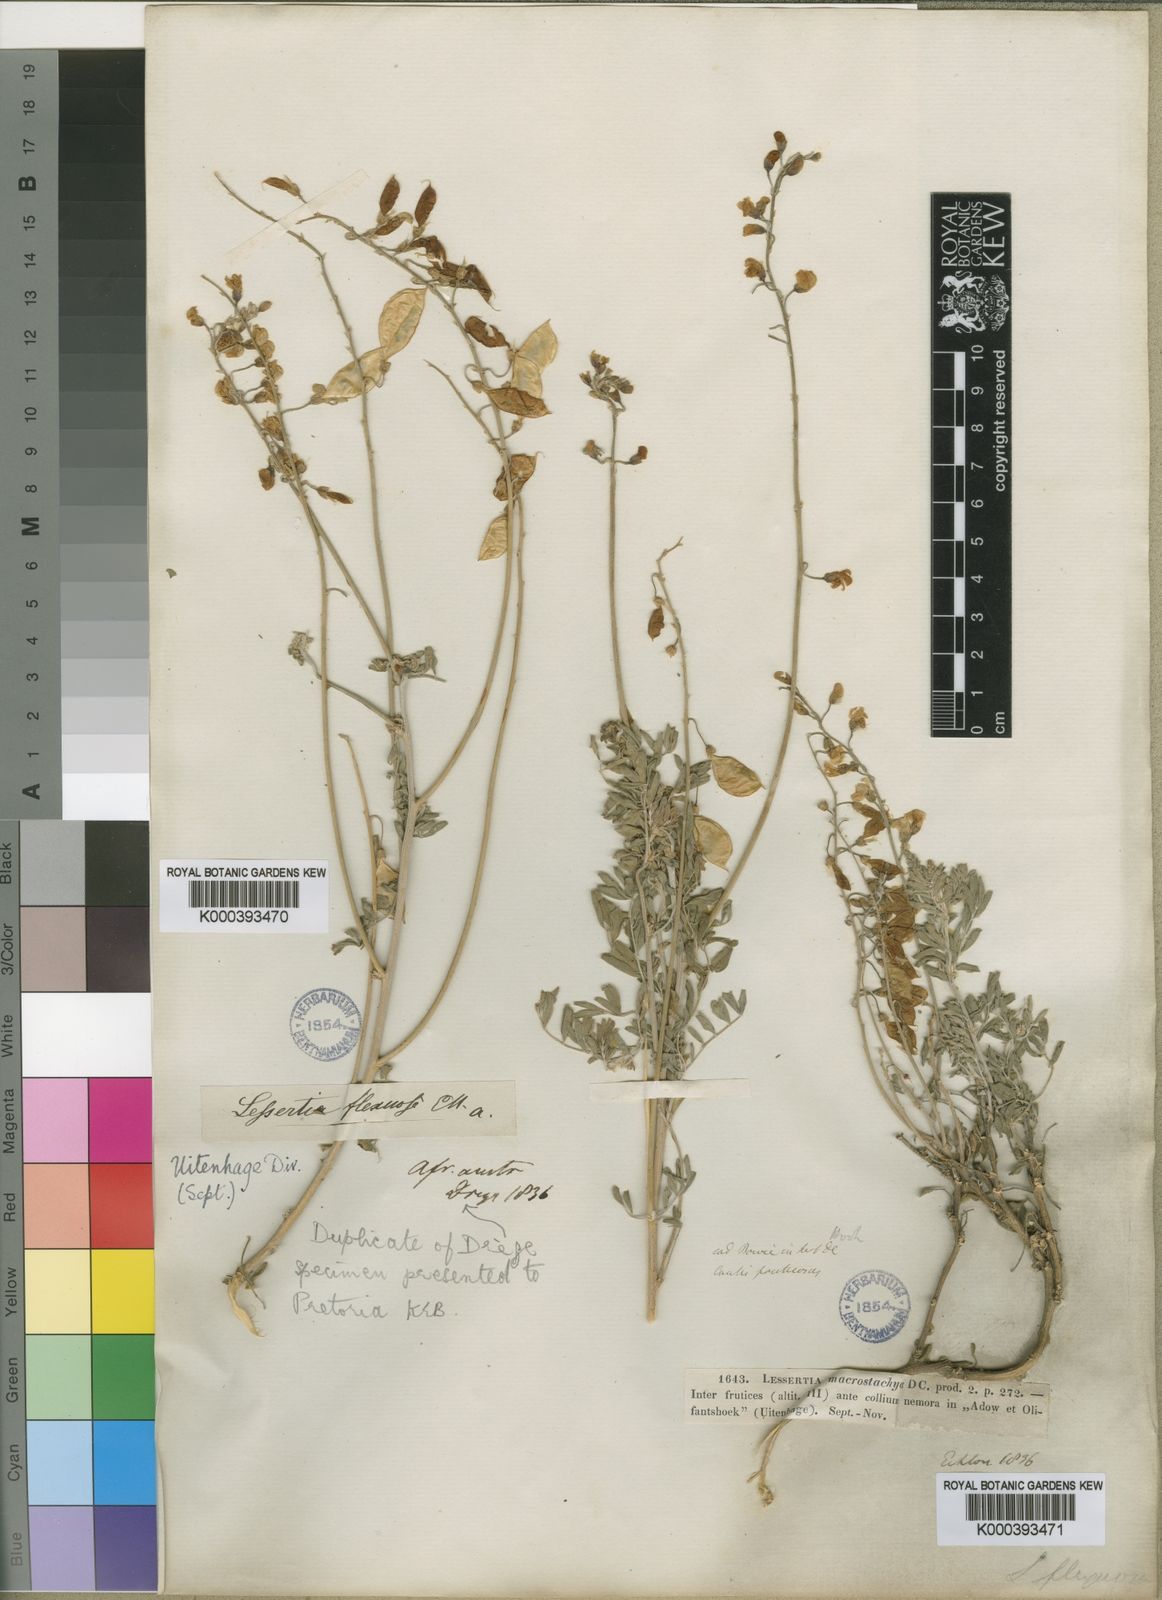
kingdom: Plantae
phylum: Tracheophyta
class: Magnoliopsida
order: Fabales
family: Fabaceae
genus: Lessertia
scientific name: Lessertia flexuosa
